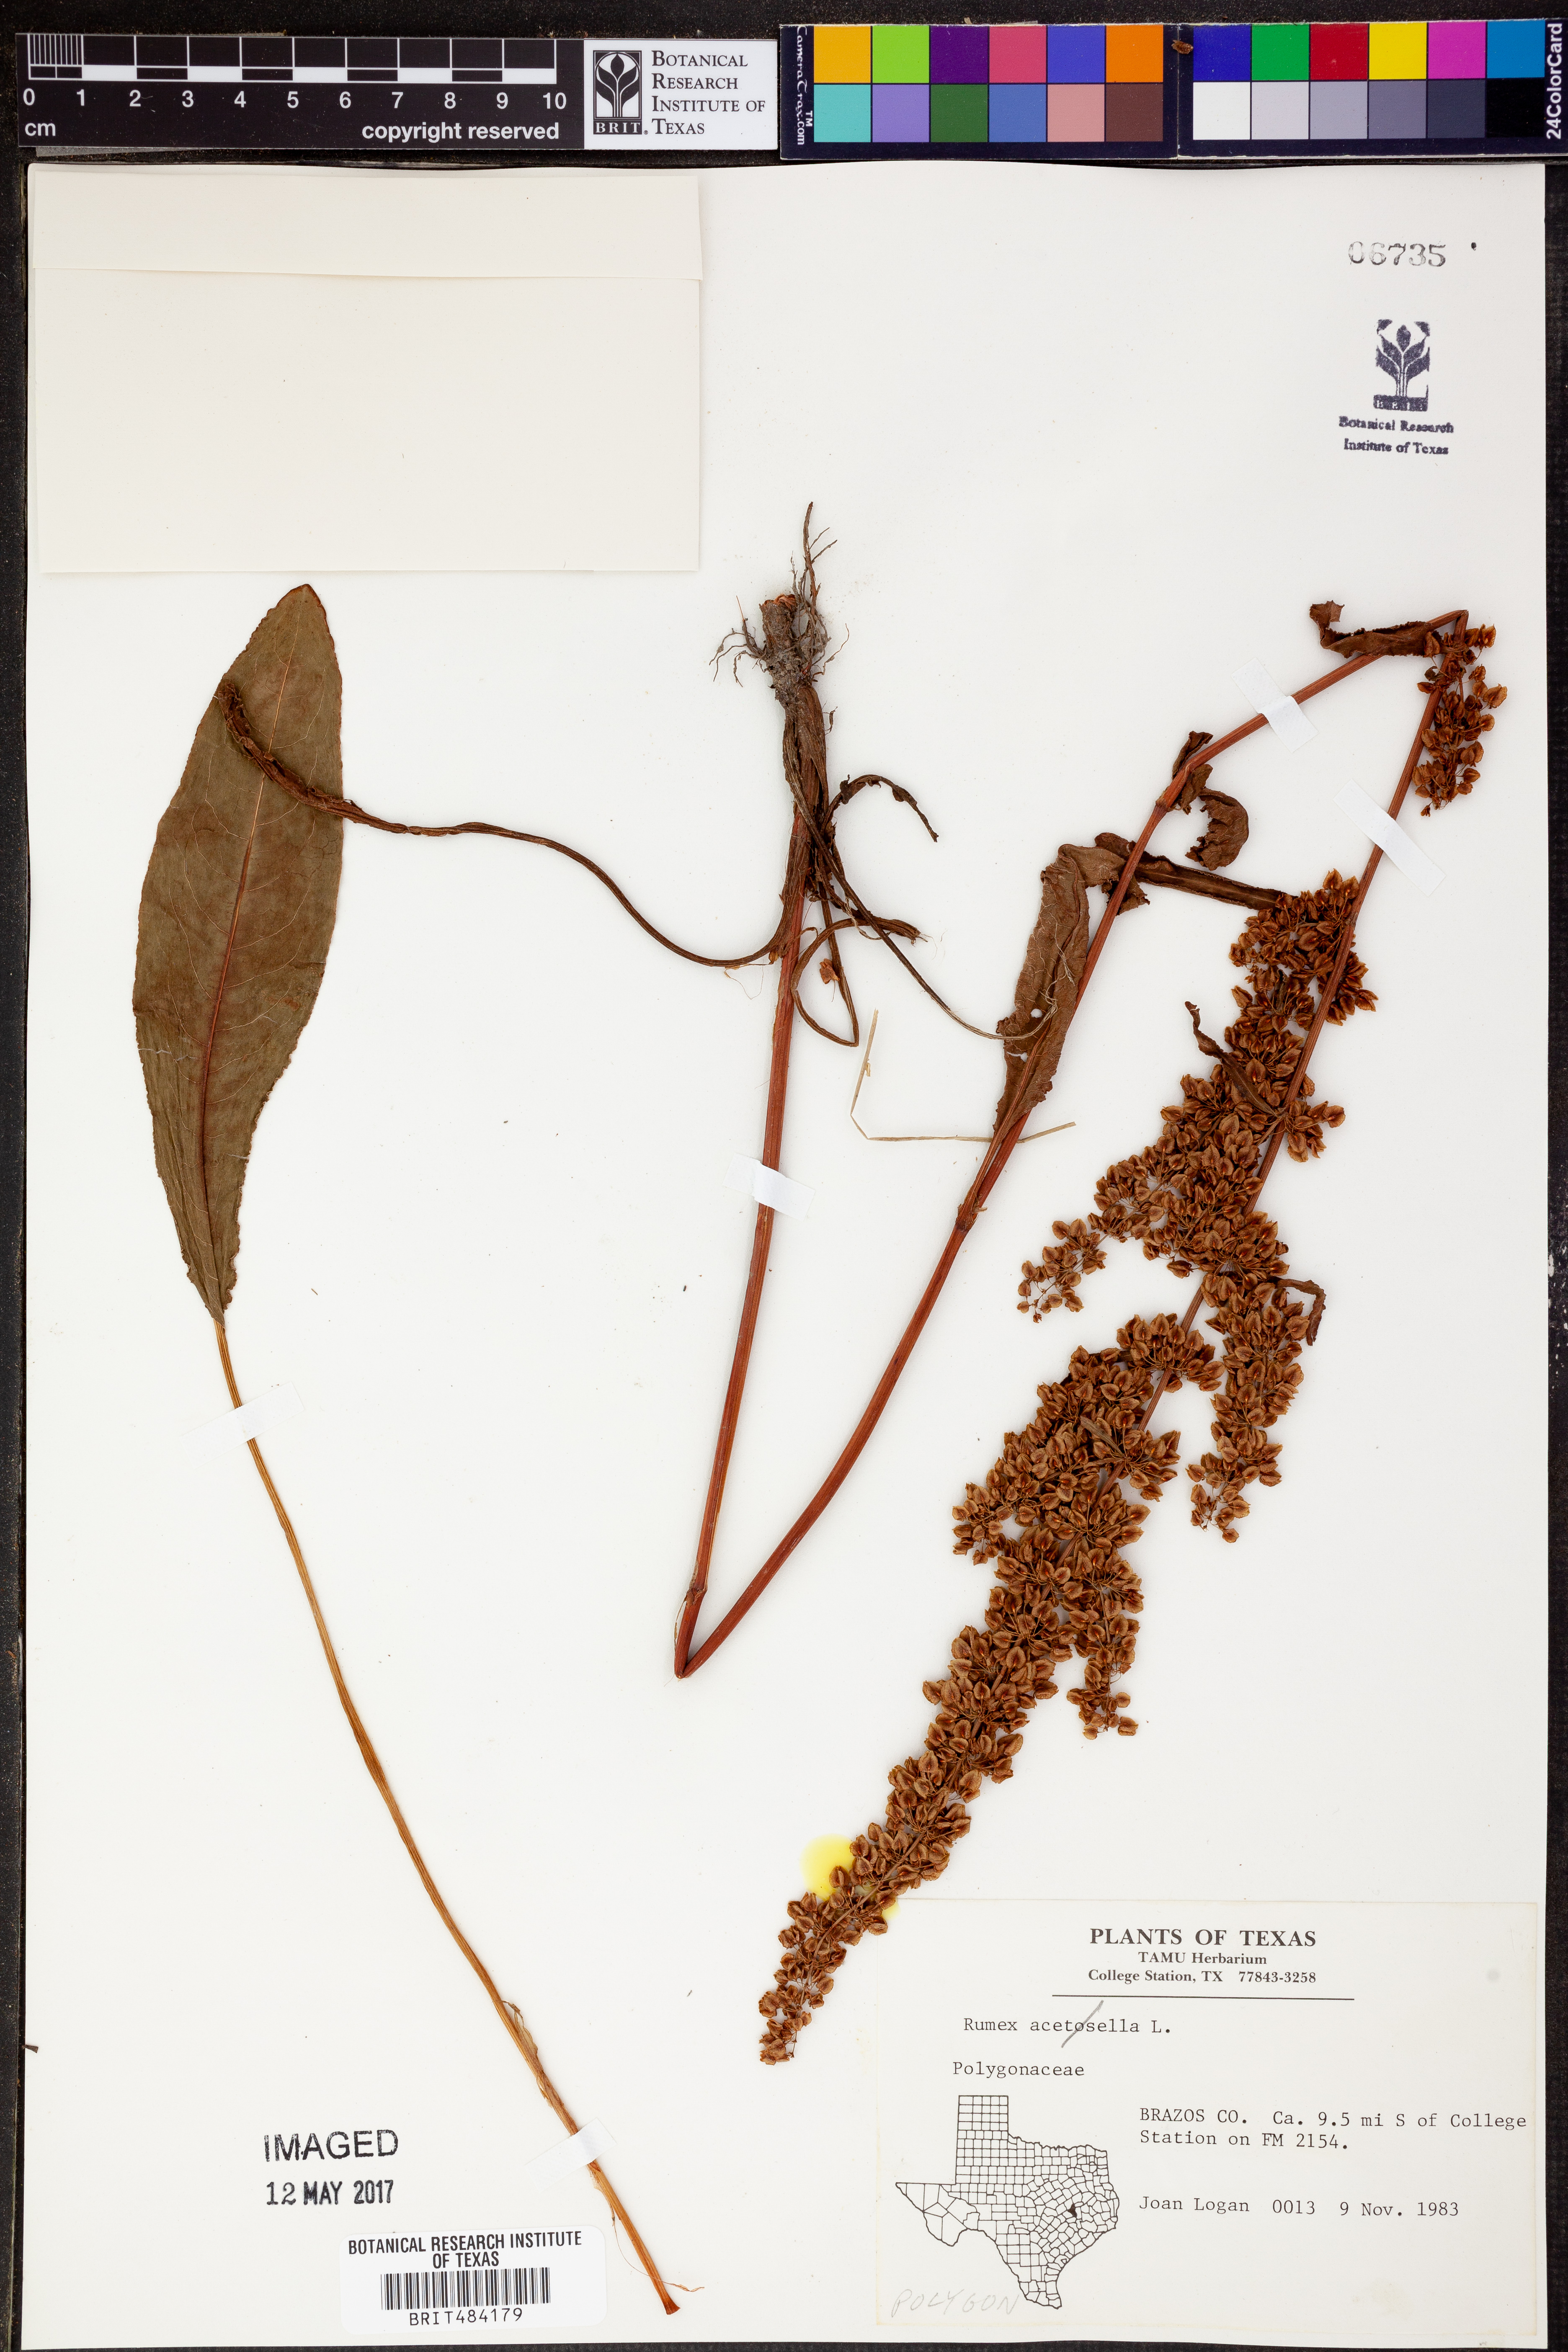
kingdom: Plantae
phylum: Tracheophyta
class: Magnoliopsida
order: Caryophyllales
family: Polygonaceae
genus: Rumex
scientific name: Rumex acetosella
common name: Common sheep sorrel
